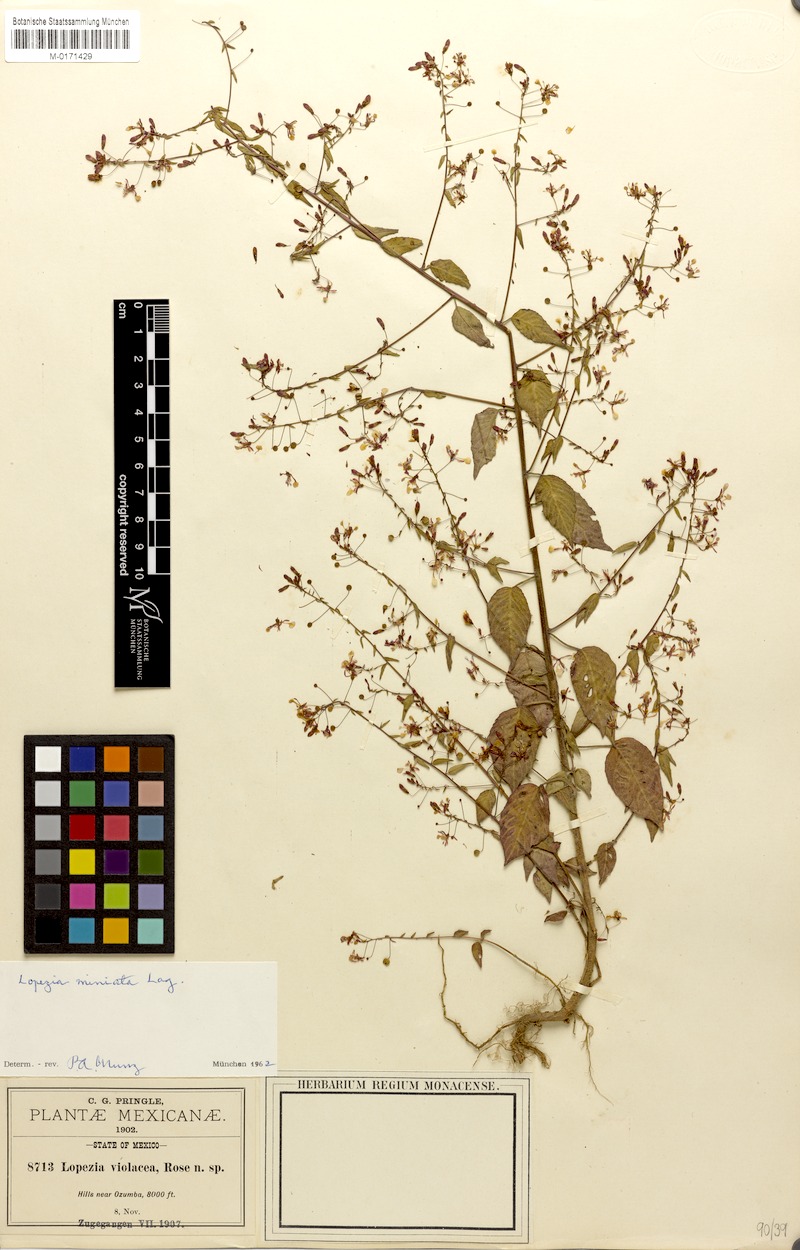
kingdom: Plantae
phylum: Tracheophyta
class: Magnoliopsida
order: Myrtales
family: Onagraceae
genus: Lopezia
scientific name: Lopezia miniata
